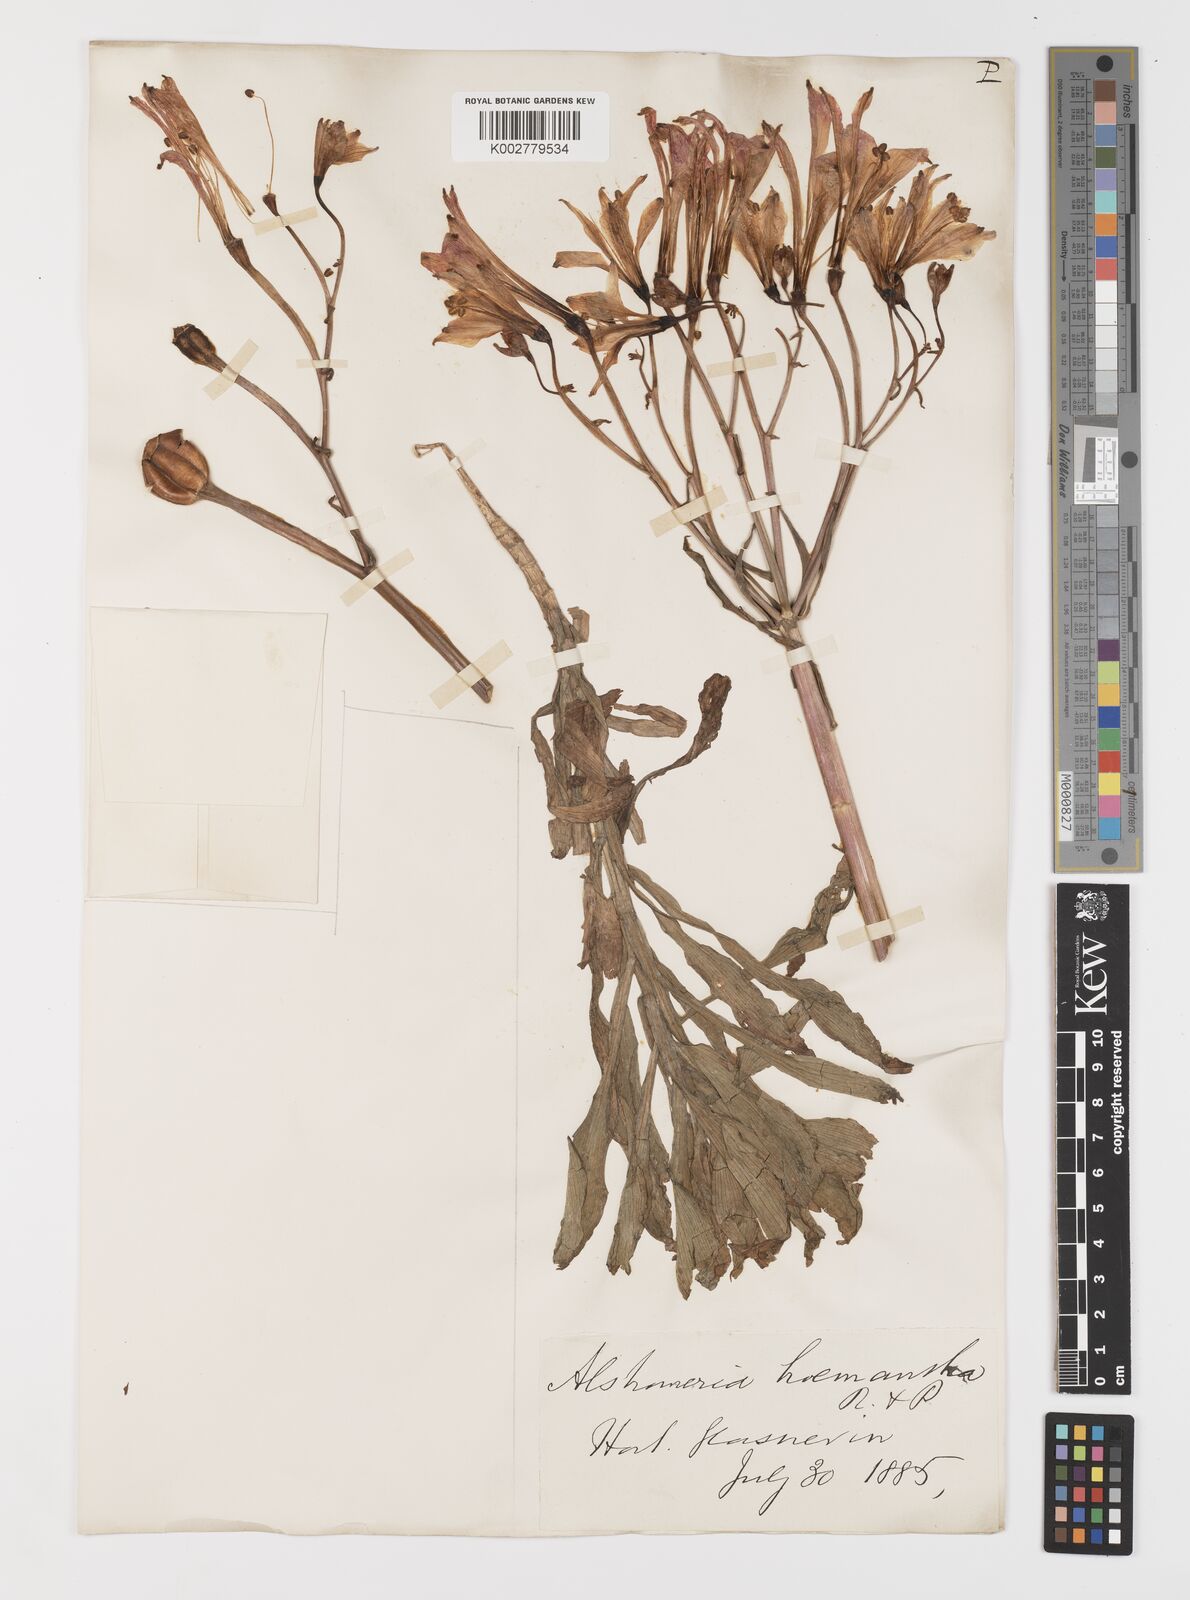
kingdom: Plantae
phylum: Tracheophyta
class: Liliopsida
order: Liliales
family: Alstroemeriaceae
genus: Alstroemeria
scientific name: Alstroemeria ligtu
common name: St. martin's-flower
